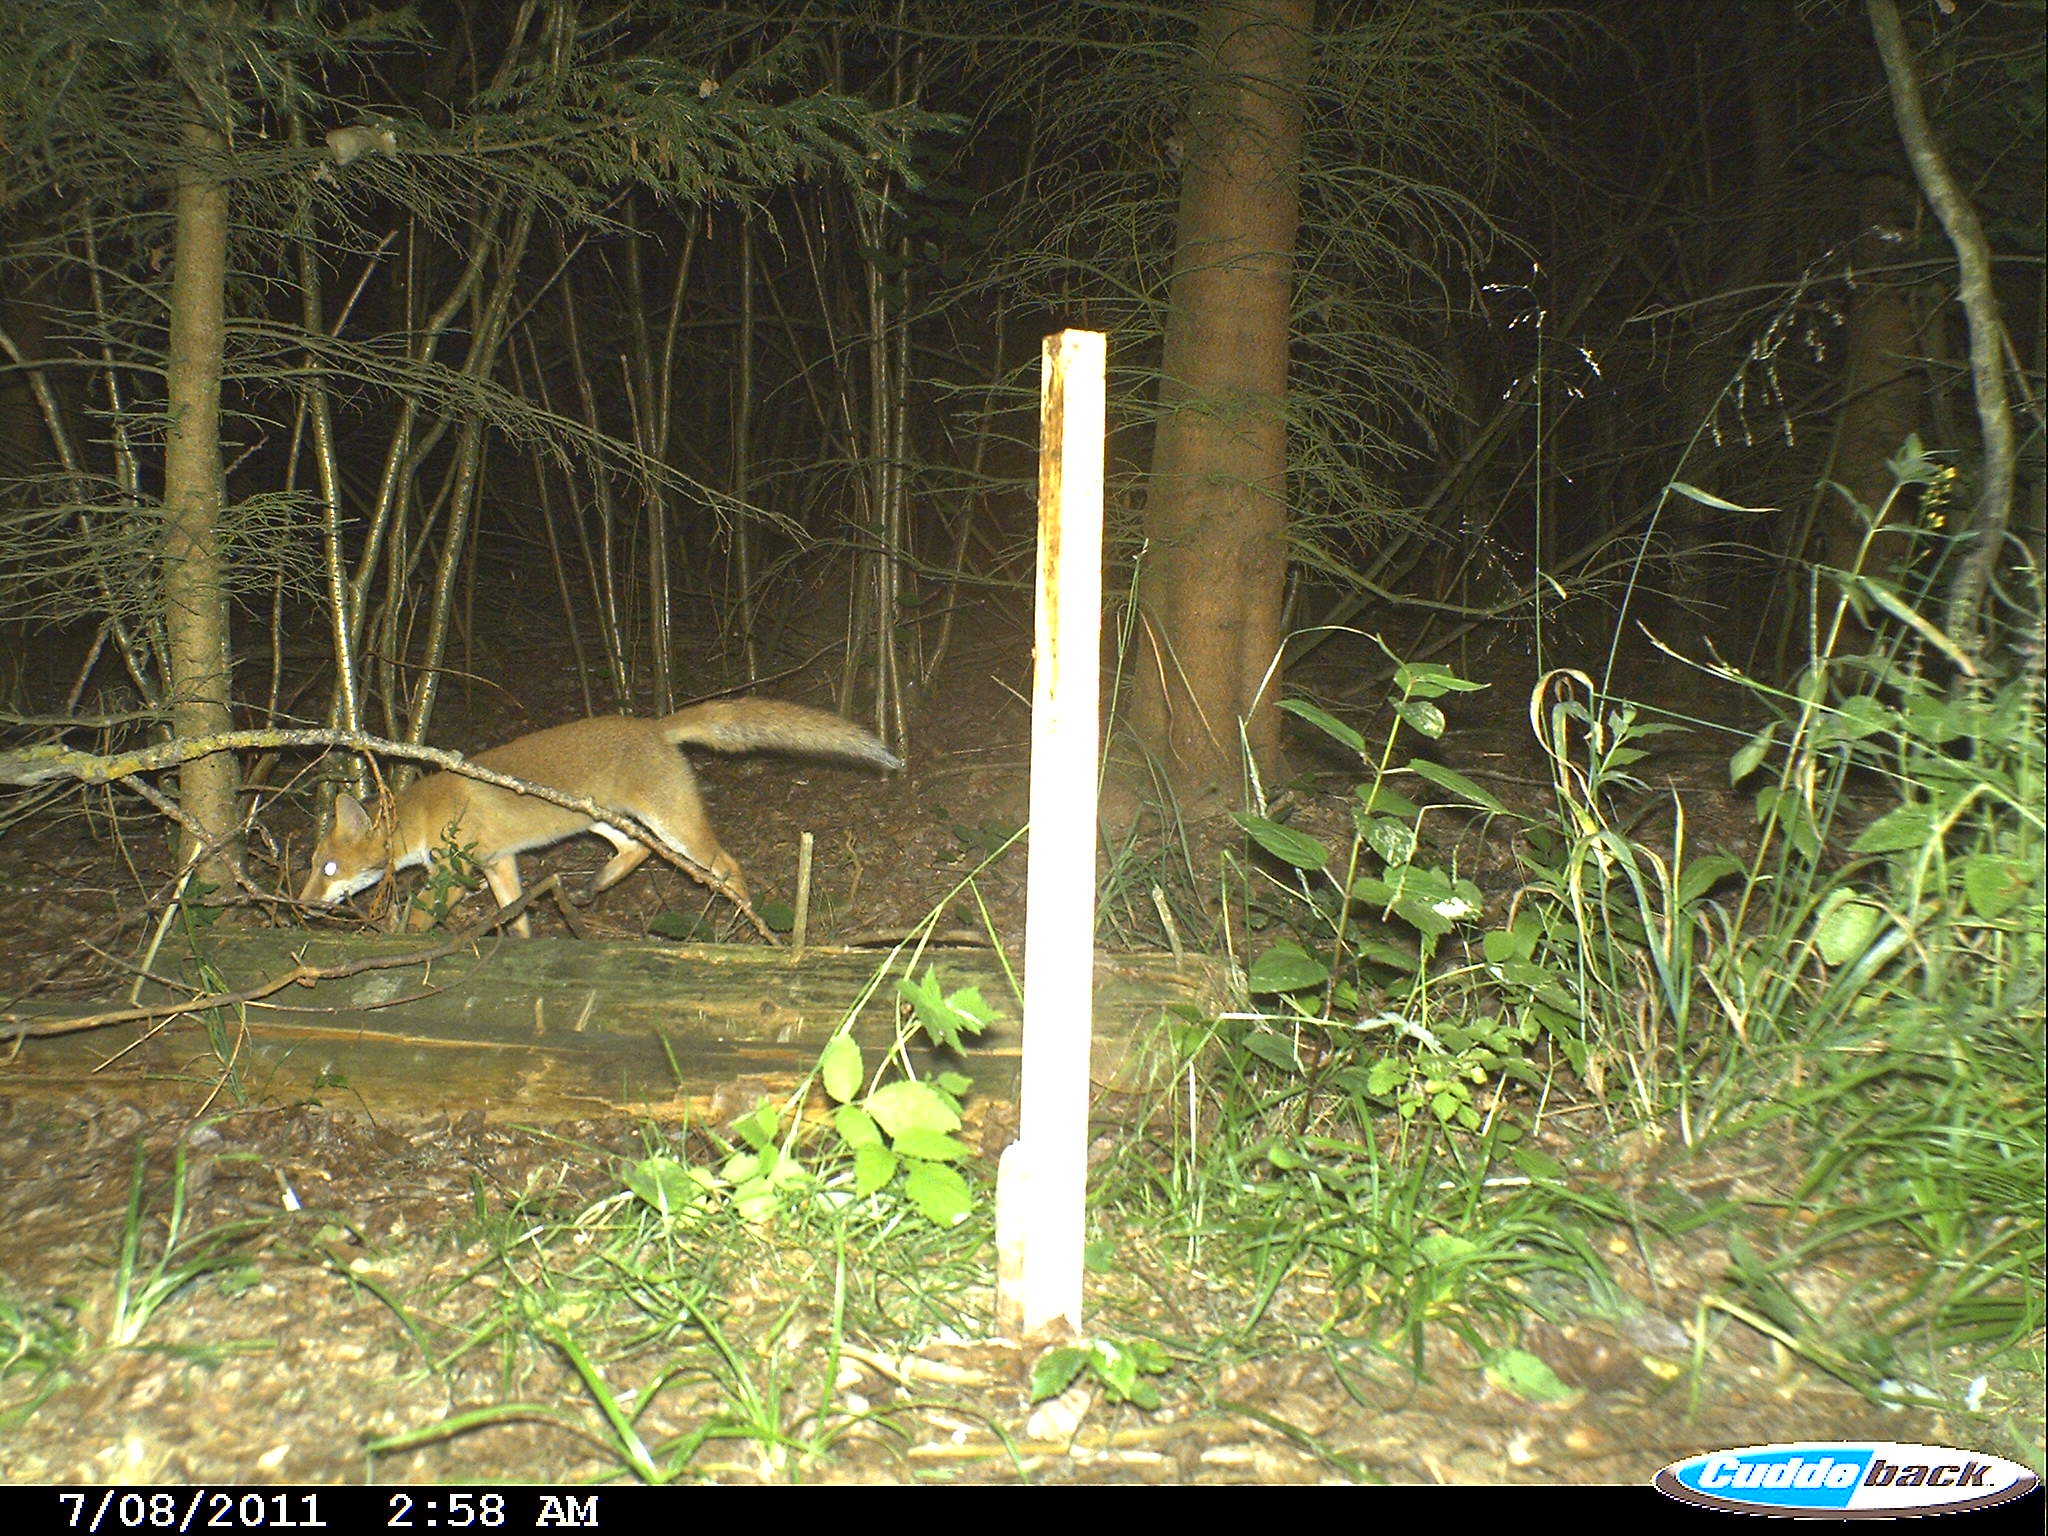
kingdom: Animalia
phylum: Chordata
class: Mammalia
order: Carnivora
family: Canidae
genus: Vulpes
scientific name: Vulpes vulpes
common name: Red fox
